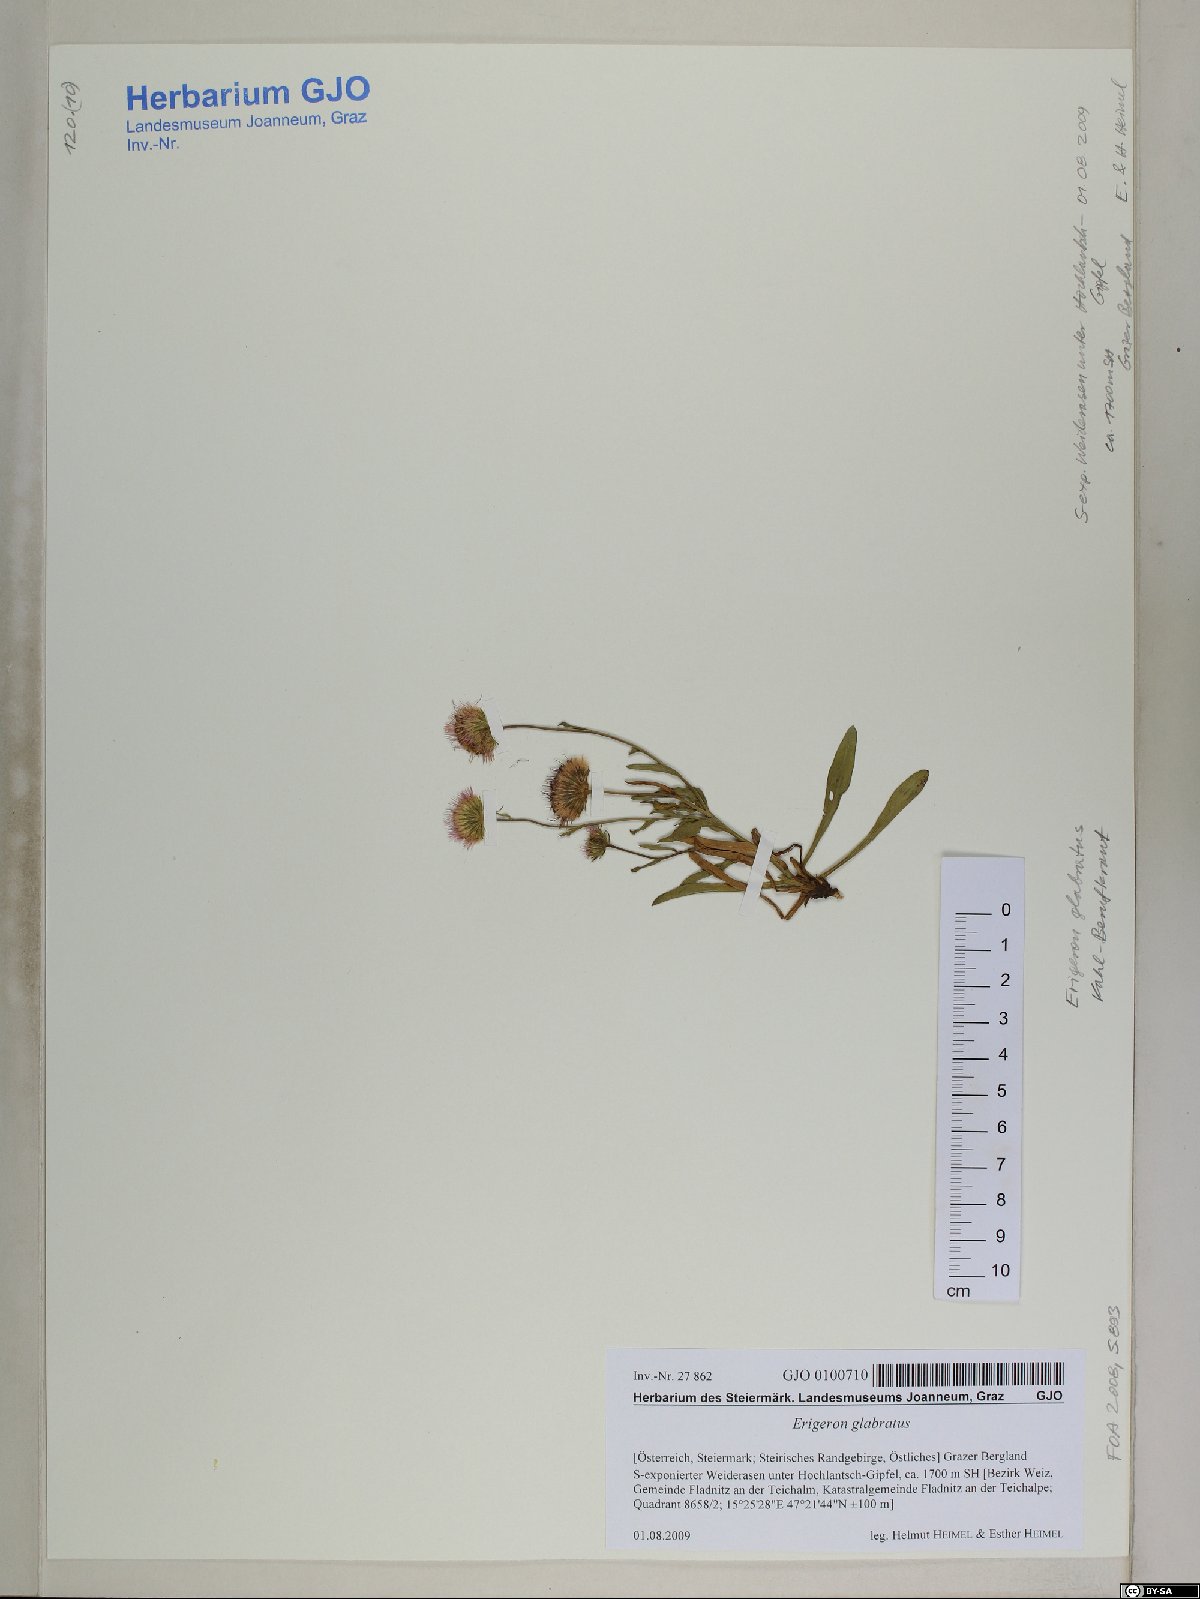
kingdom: Plantae
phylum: Tracheophyta
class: Magnoliopsida
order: Asterales
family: Asteraceae
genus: Erigeron
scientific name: Erigeron glabratus
